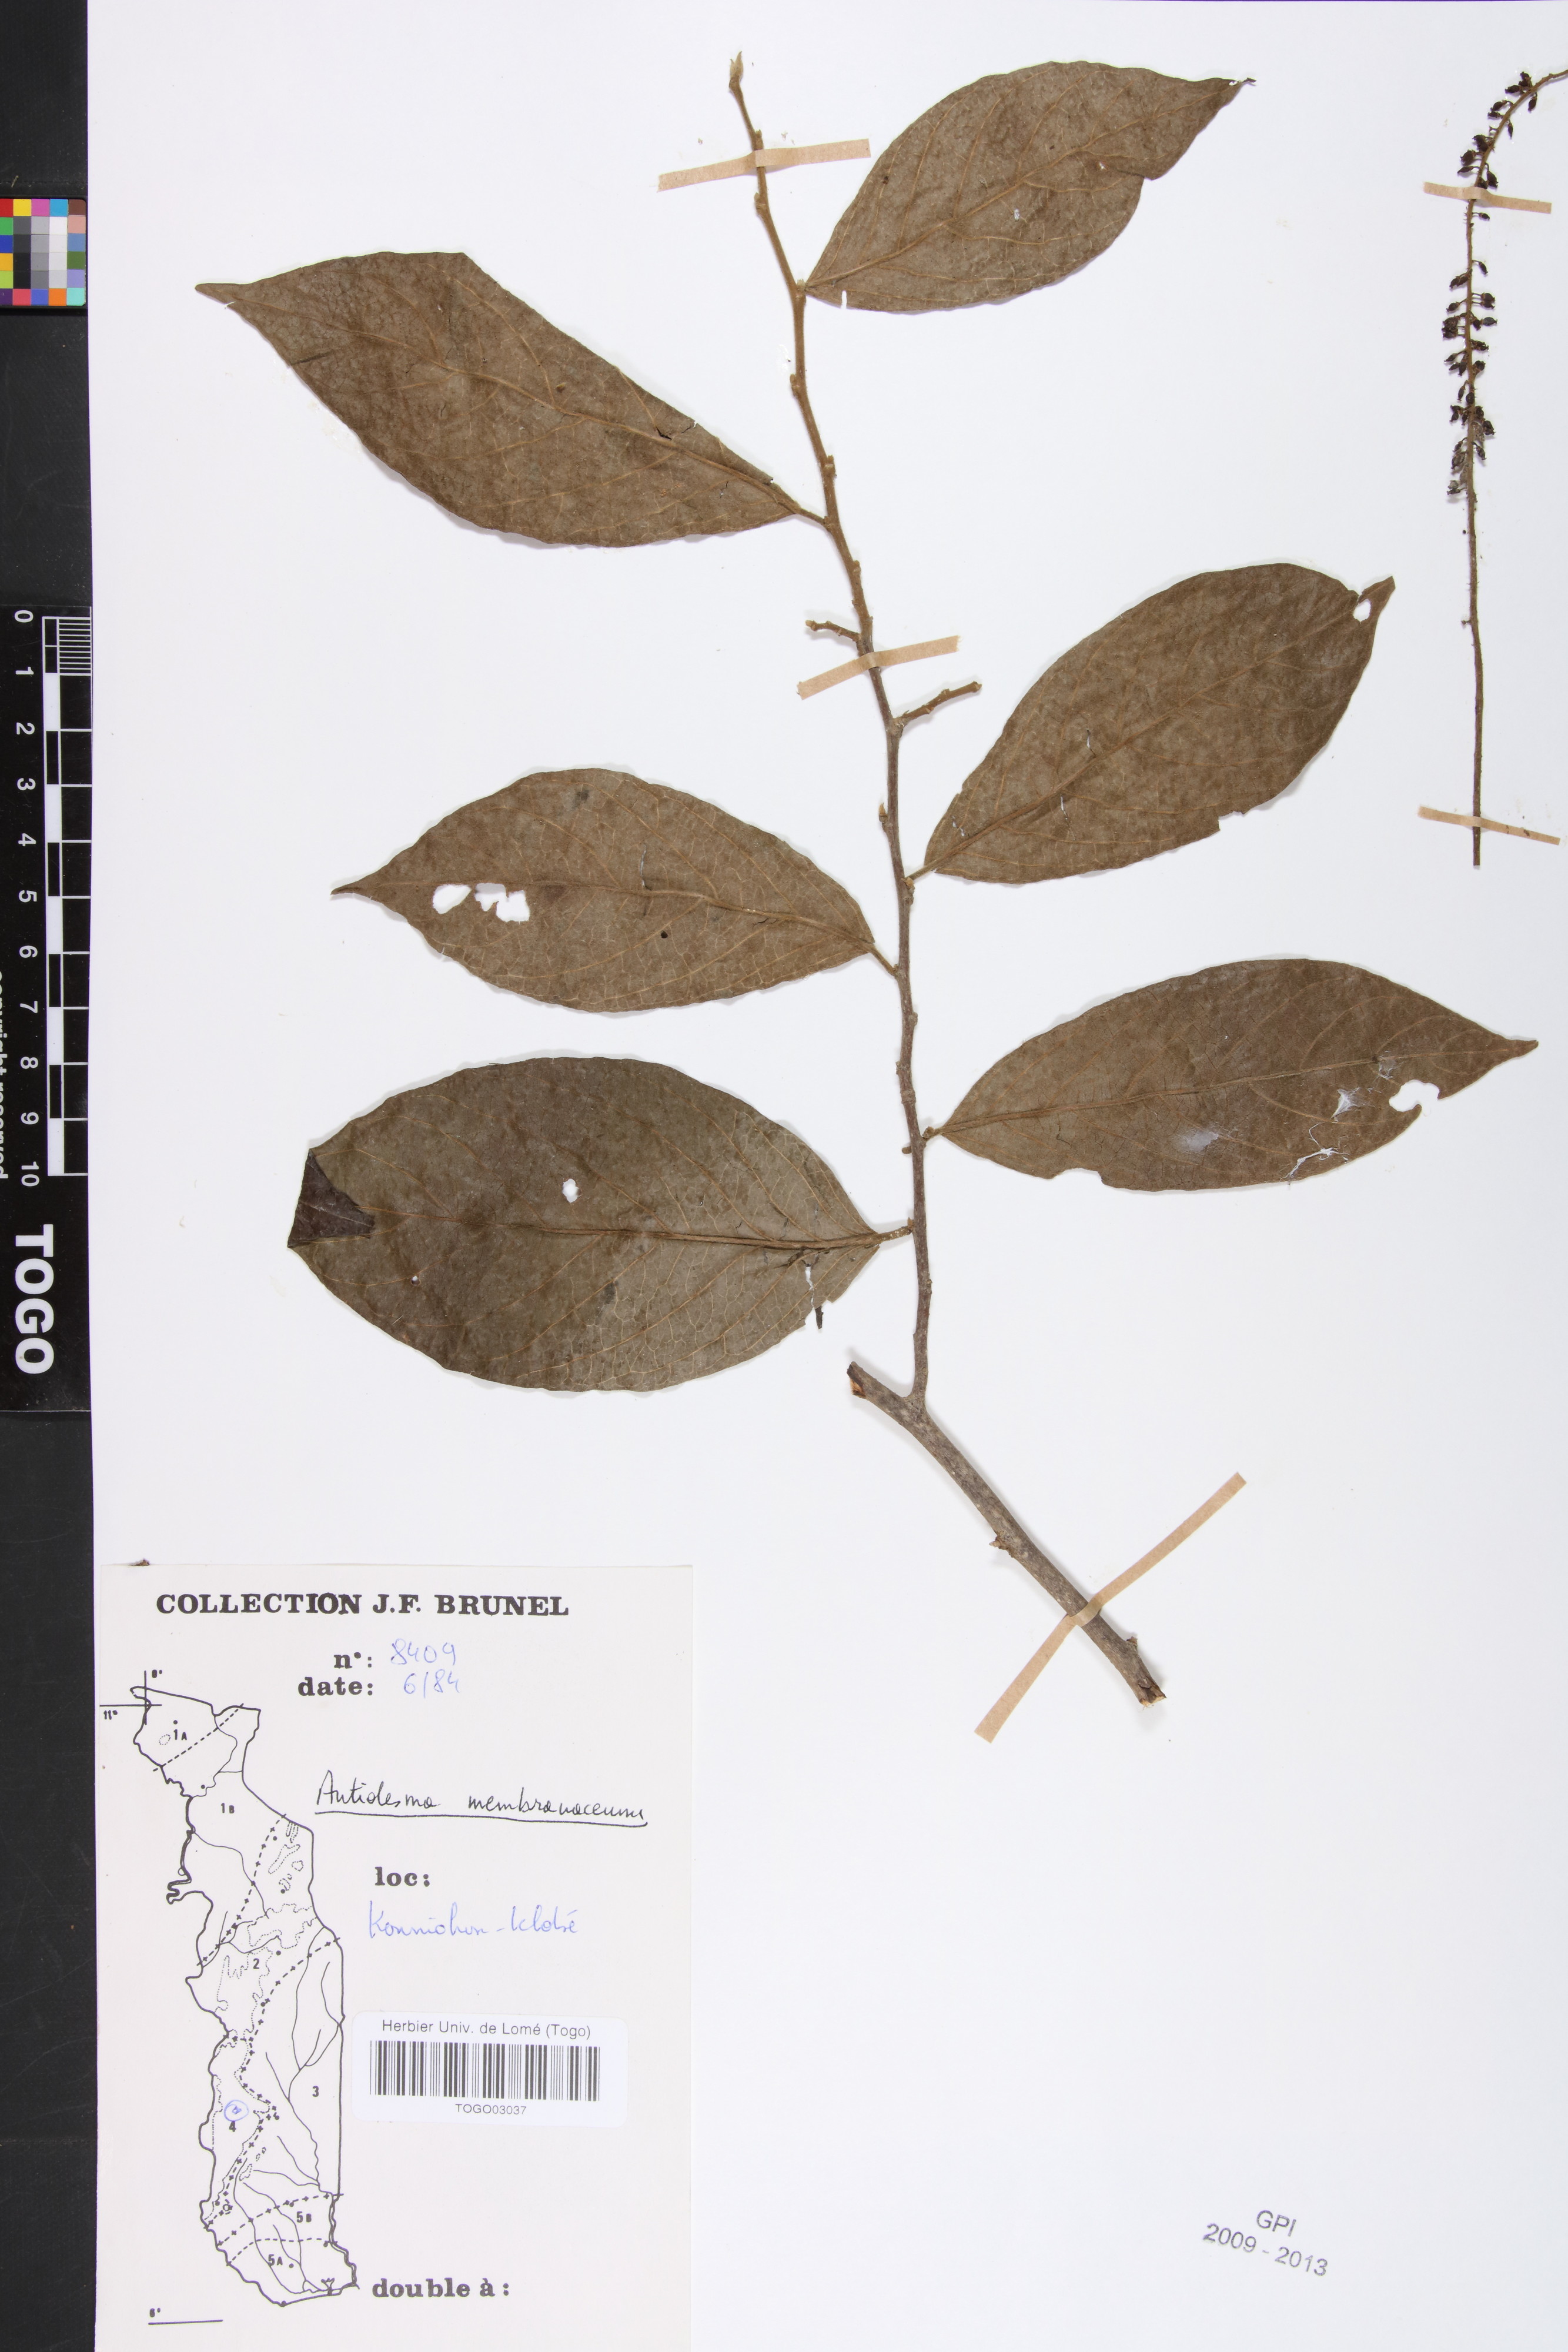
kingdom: Plantae
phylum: Tracheophyta
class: Magnoliopsida
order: Malpighiales
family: Phyllanthaceae
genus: Antidesma
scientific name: Antidesma membranaceum
